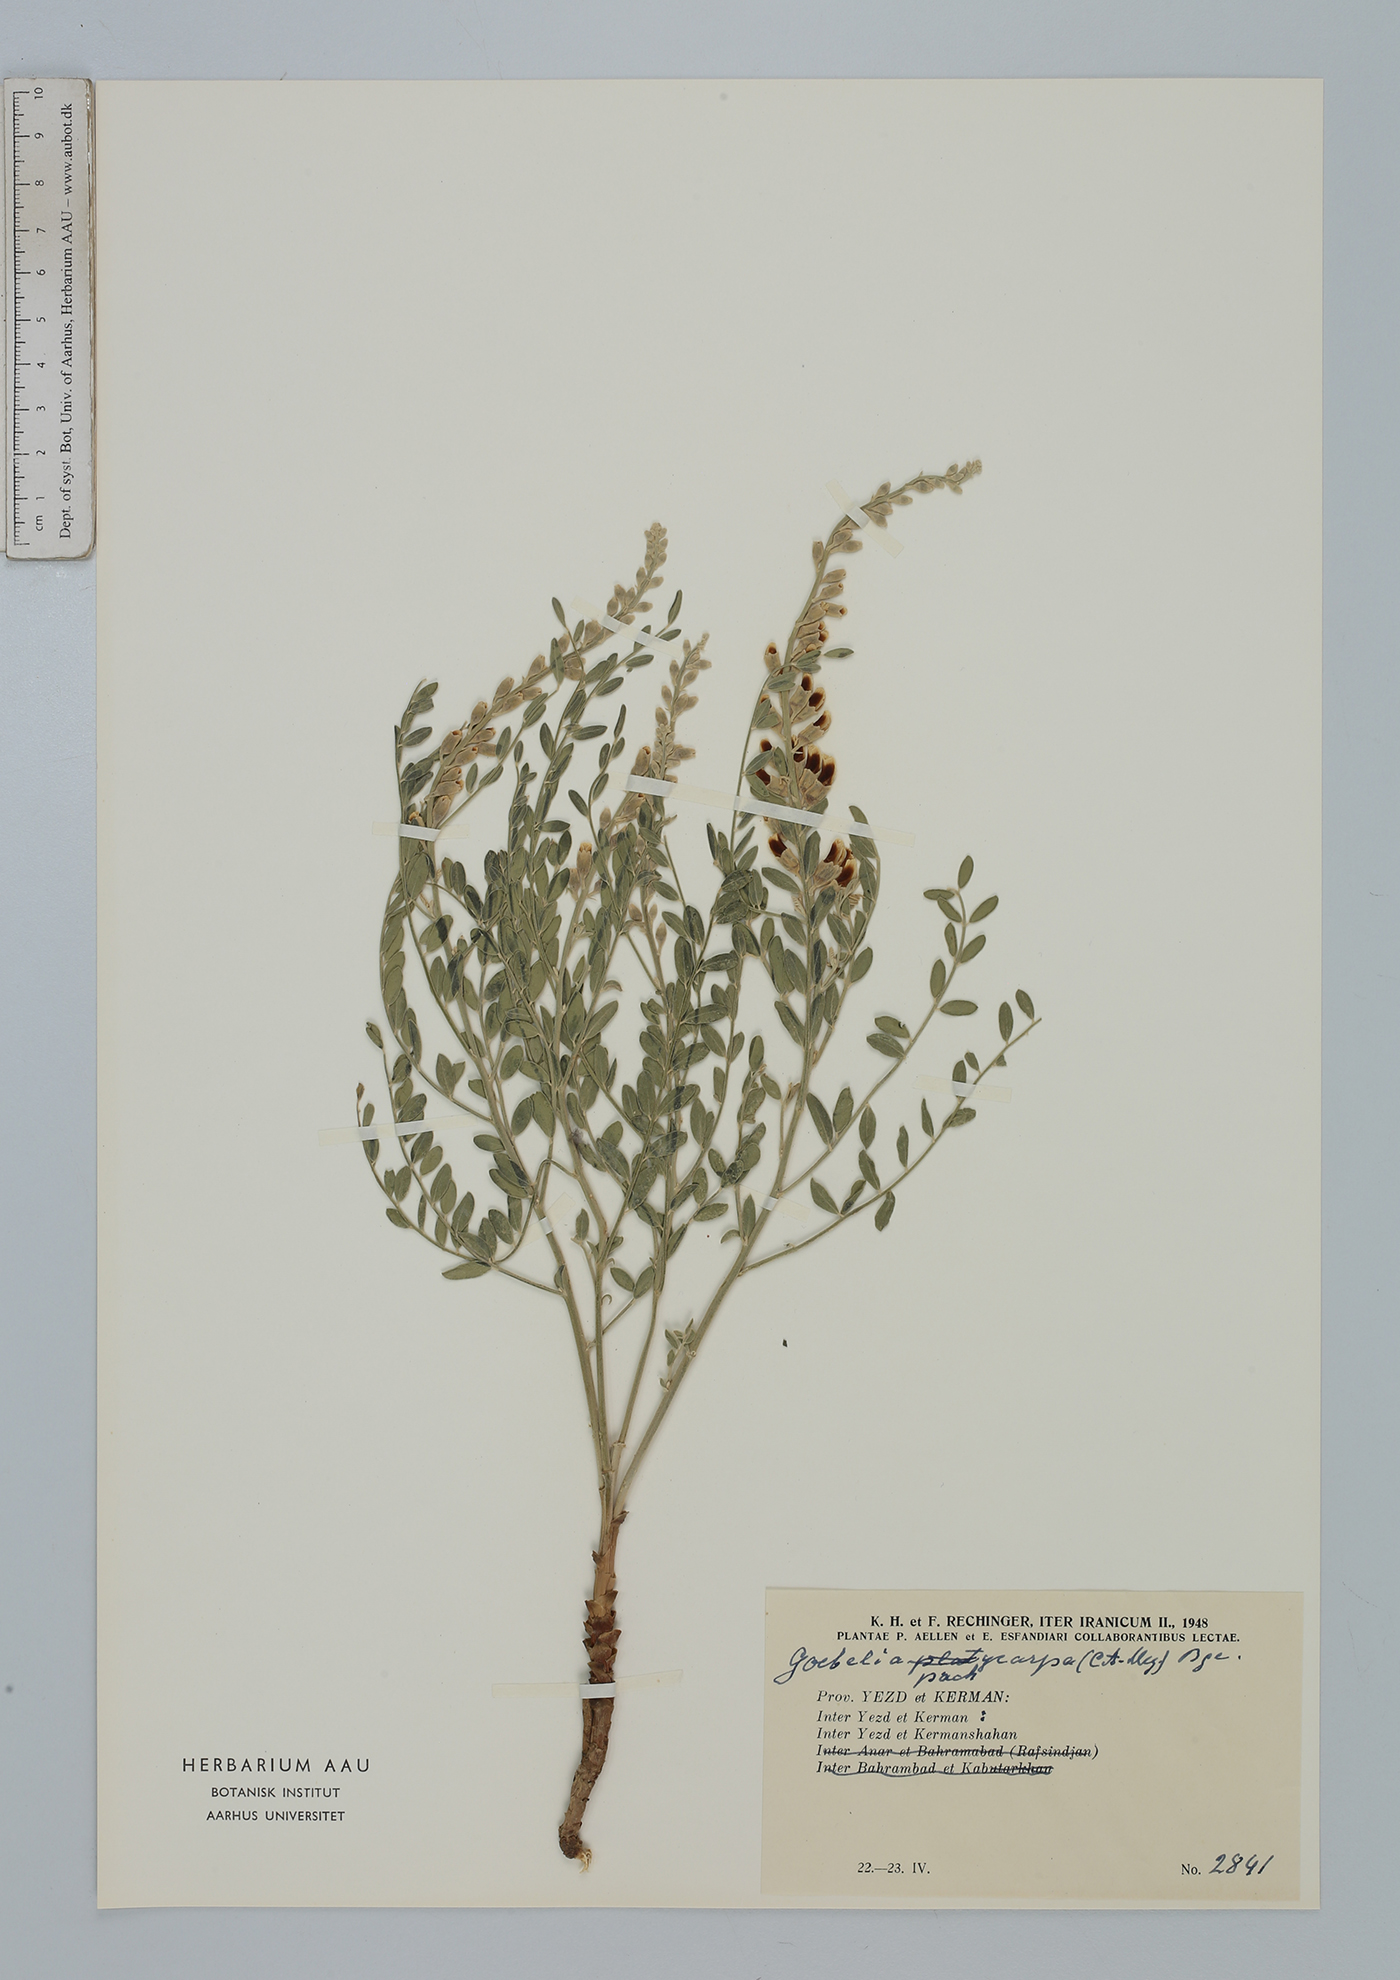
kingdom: Plantae
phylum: Tracheophyta
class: Magnoliopsida
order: Fabales
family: Fabaceae
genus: Sophora
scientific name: Sophora pachycarpa
